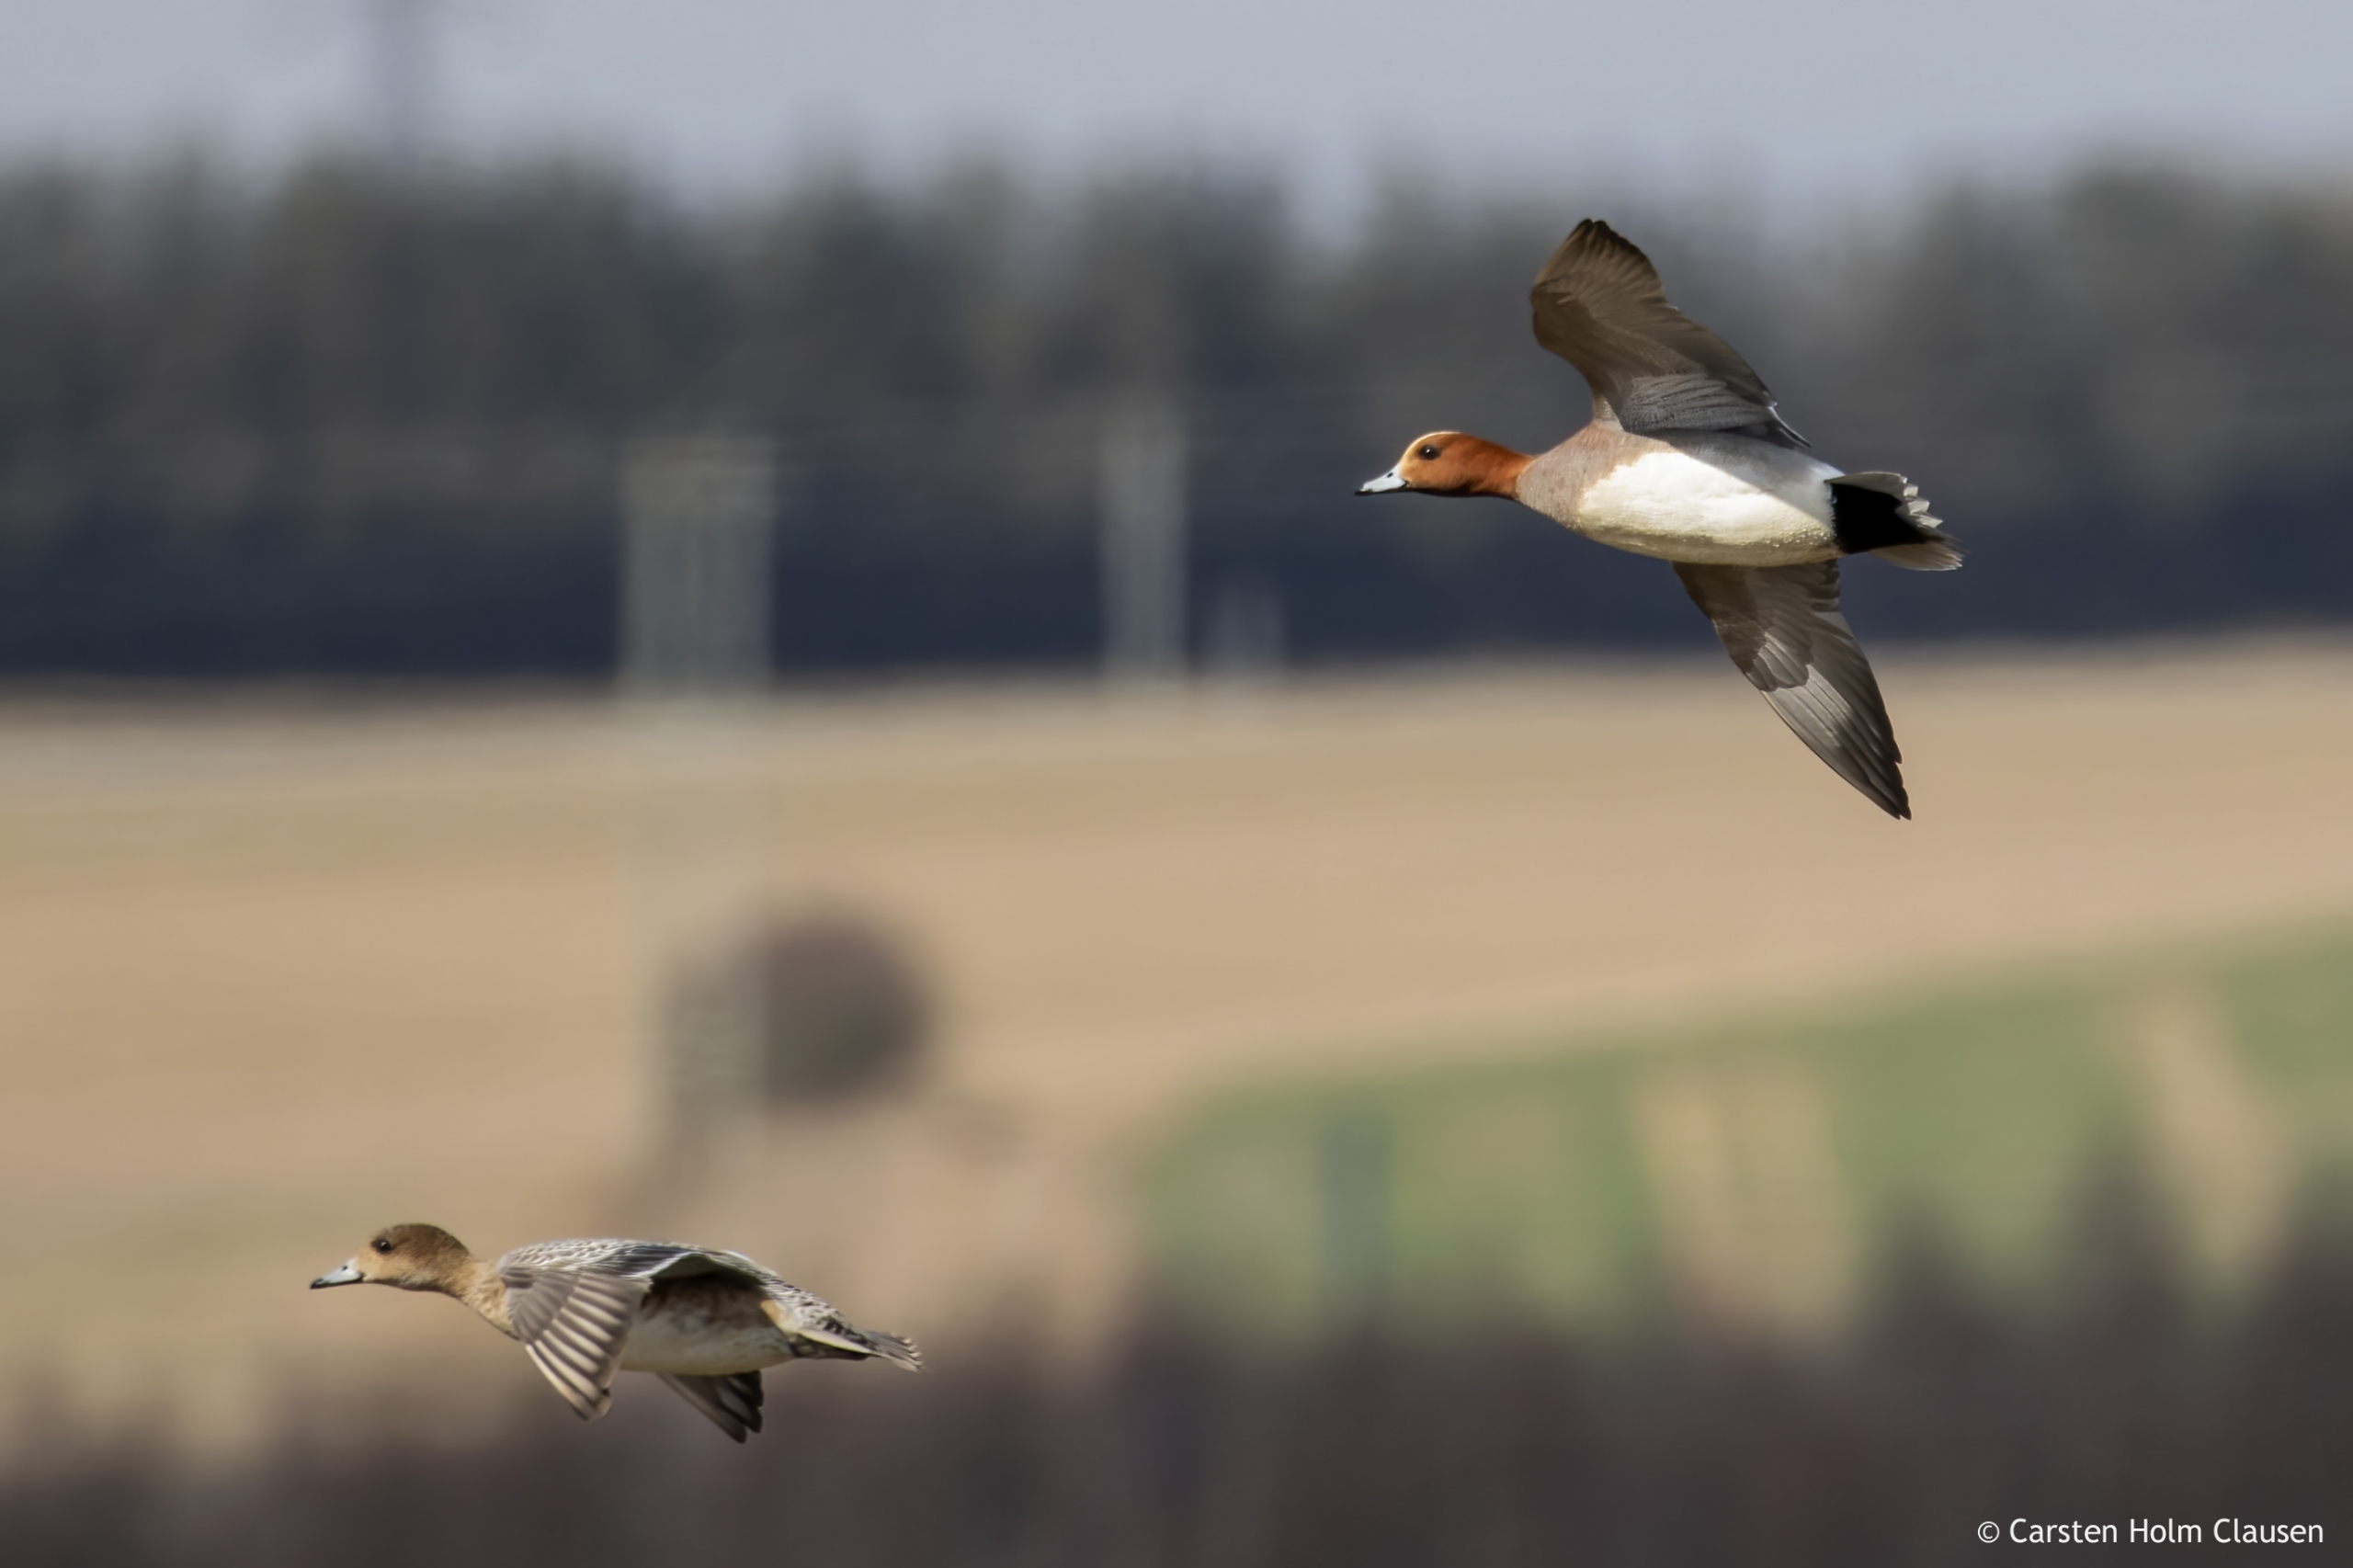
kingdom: Animalia
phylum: Chordata
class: Aves
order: Anseriformes
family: Anatidae
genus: Mareca
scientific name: Mareca penelope
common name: Pibeand
